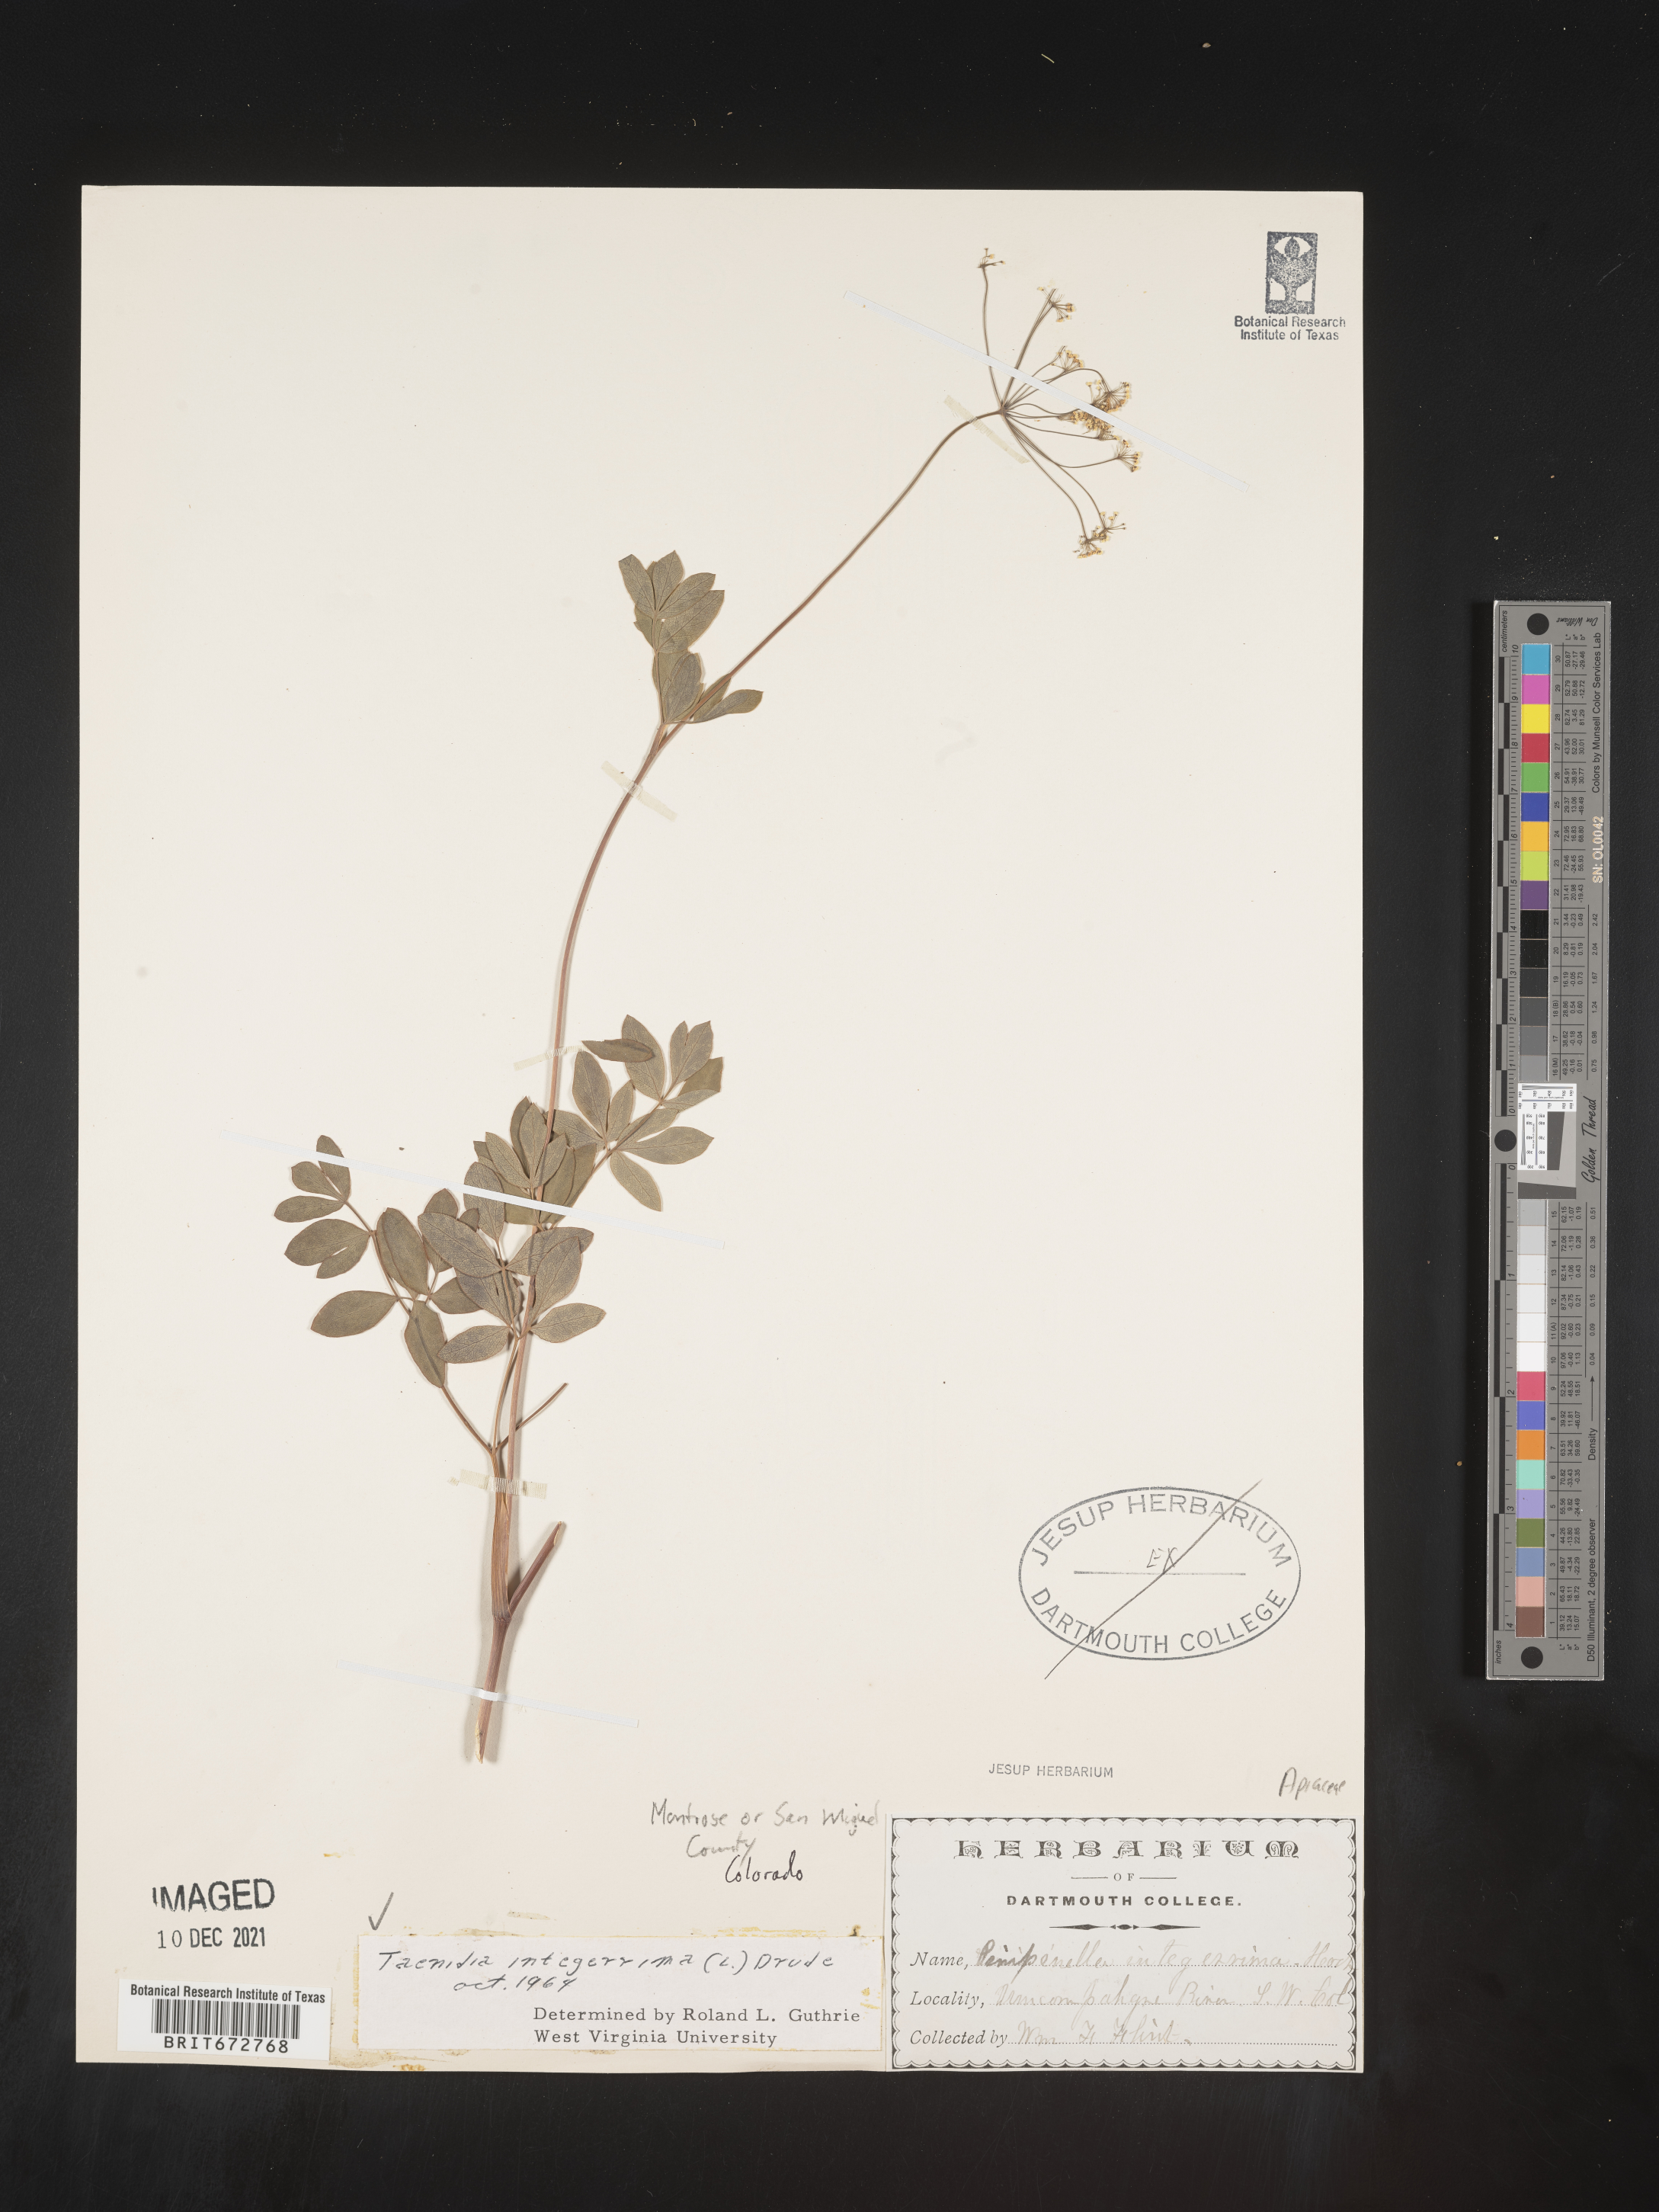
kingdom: Plantae
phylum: Tracheophyta
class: Magnoliopsida
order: Apiales
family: Apiaceae
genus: Taenidia
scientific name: Taenidia integerrima
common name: Golden alexander
